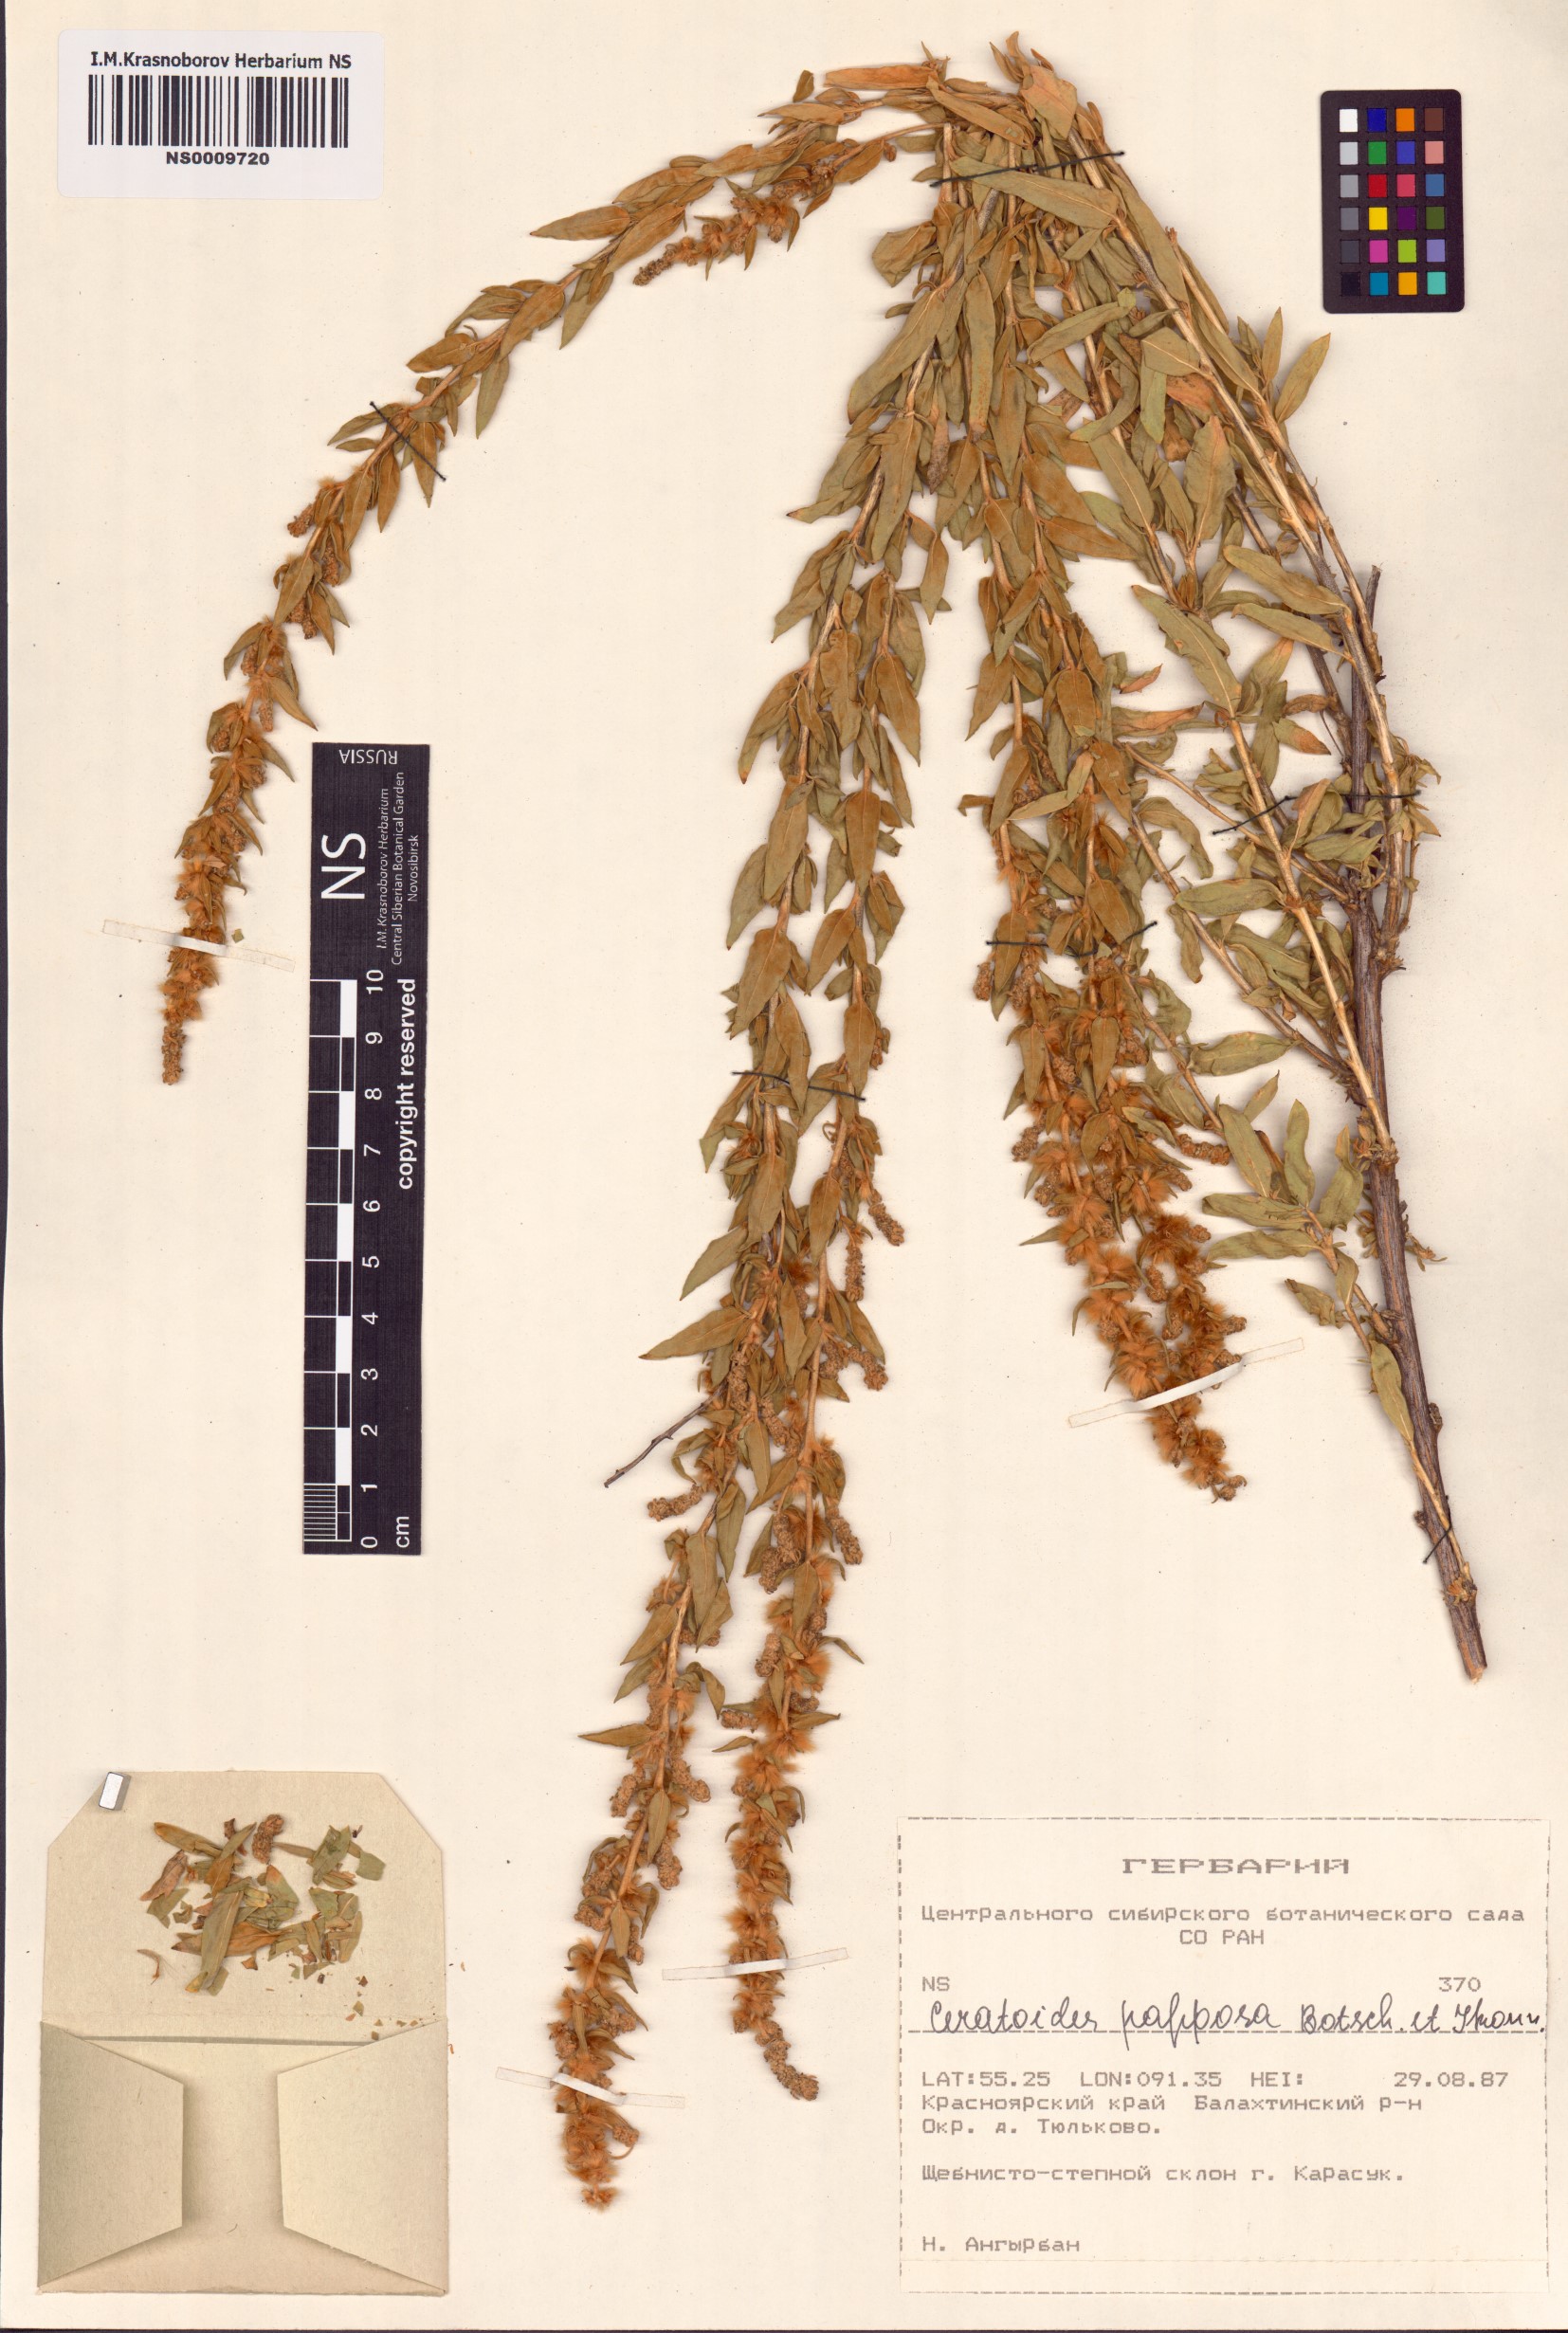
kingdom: Plantae
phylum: Tracheophyta
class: Magnoliopsida
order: Caryophyllales
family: Amaranthaceae
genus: Krascheninnikovia
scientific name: Krascheninnikovia ceratoides
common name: Pamirian winterfat
